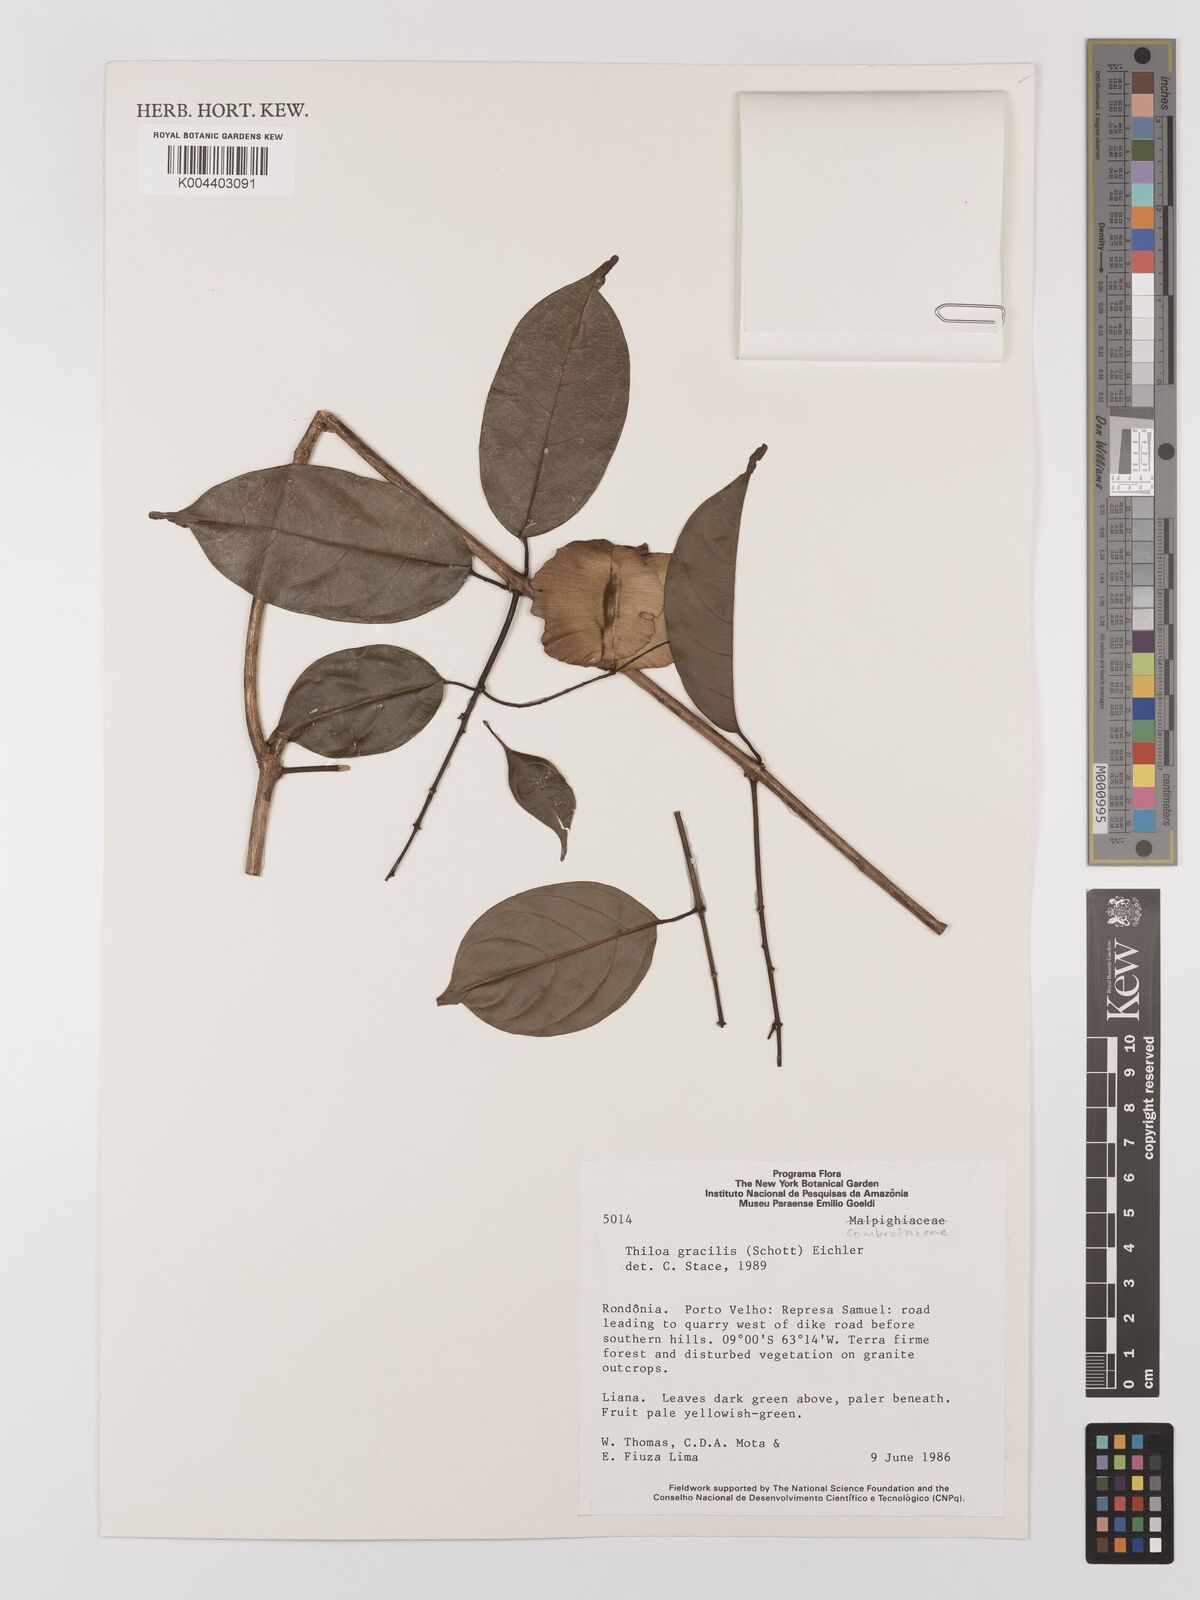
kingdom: Plantae
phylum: Tracheophyta
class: Magnoliopsida
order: Myrtales
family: Combretaceae
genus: Combretum
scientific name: Combretum gracile
